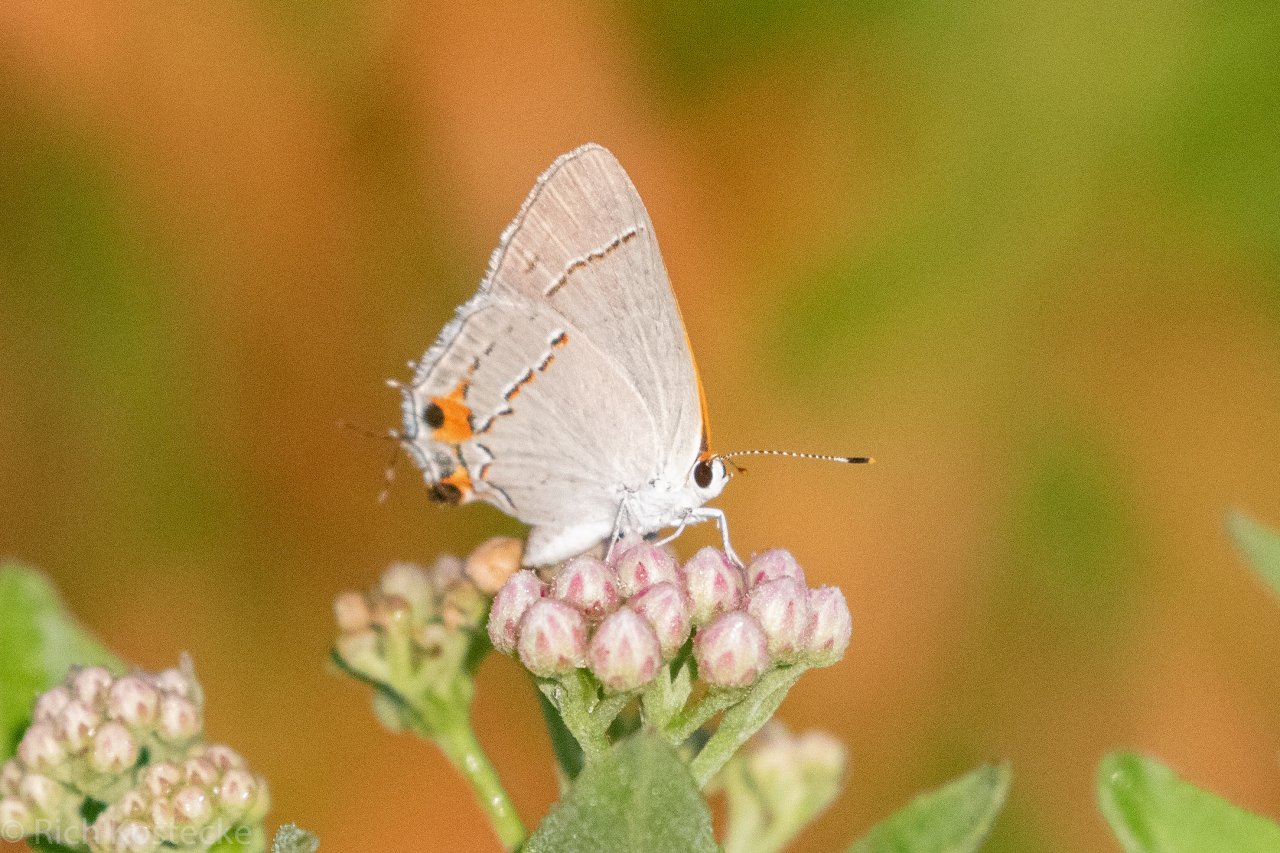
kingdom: Animalia
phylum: Arthropoda
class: Insecta
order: Lepidoptera
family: Lycaenidae
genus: Strymon
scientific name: Strymon melinus
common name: Gray Hairstreak
